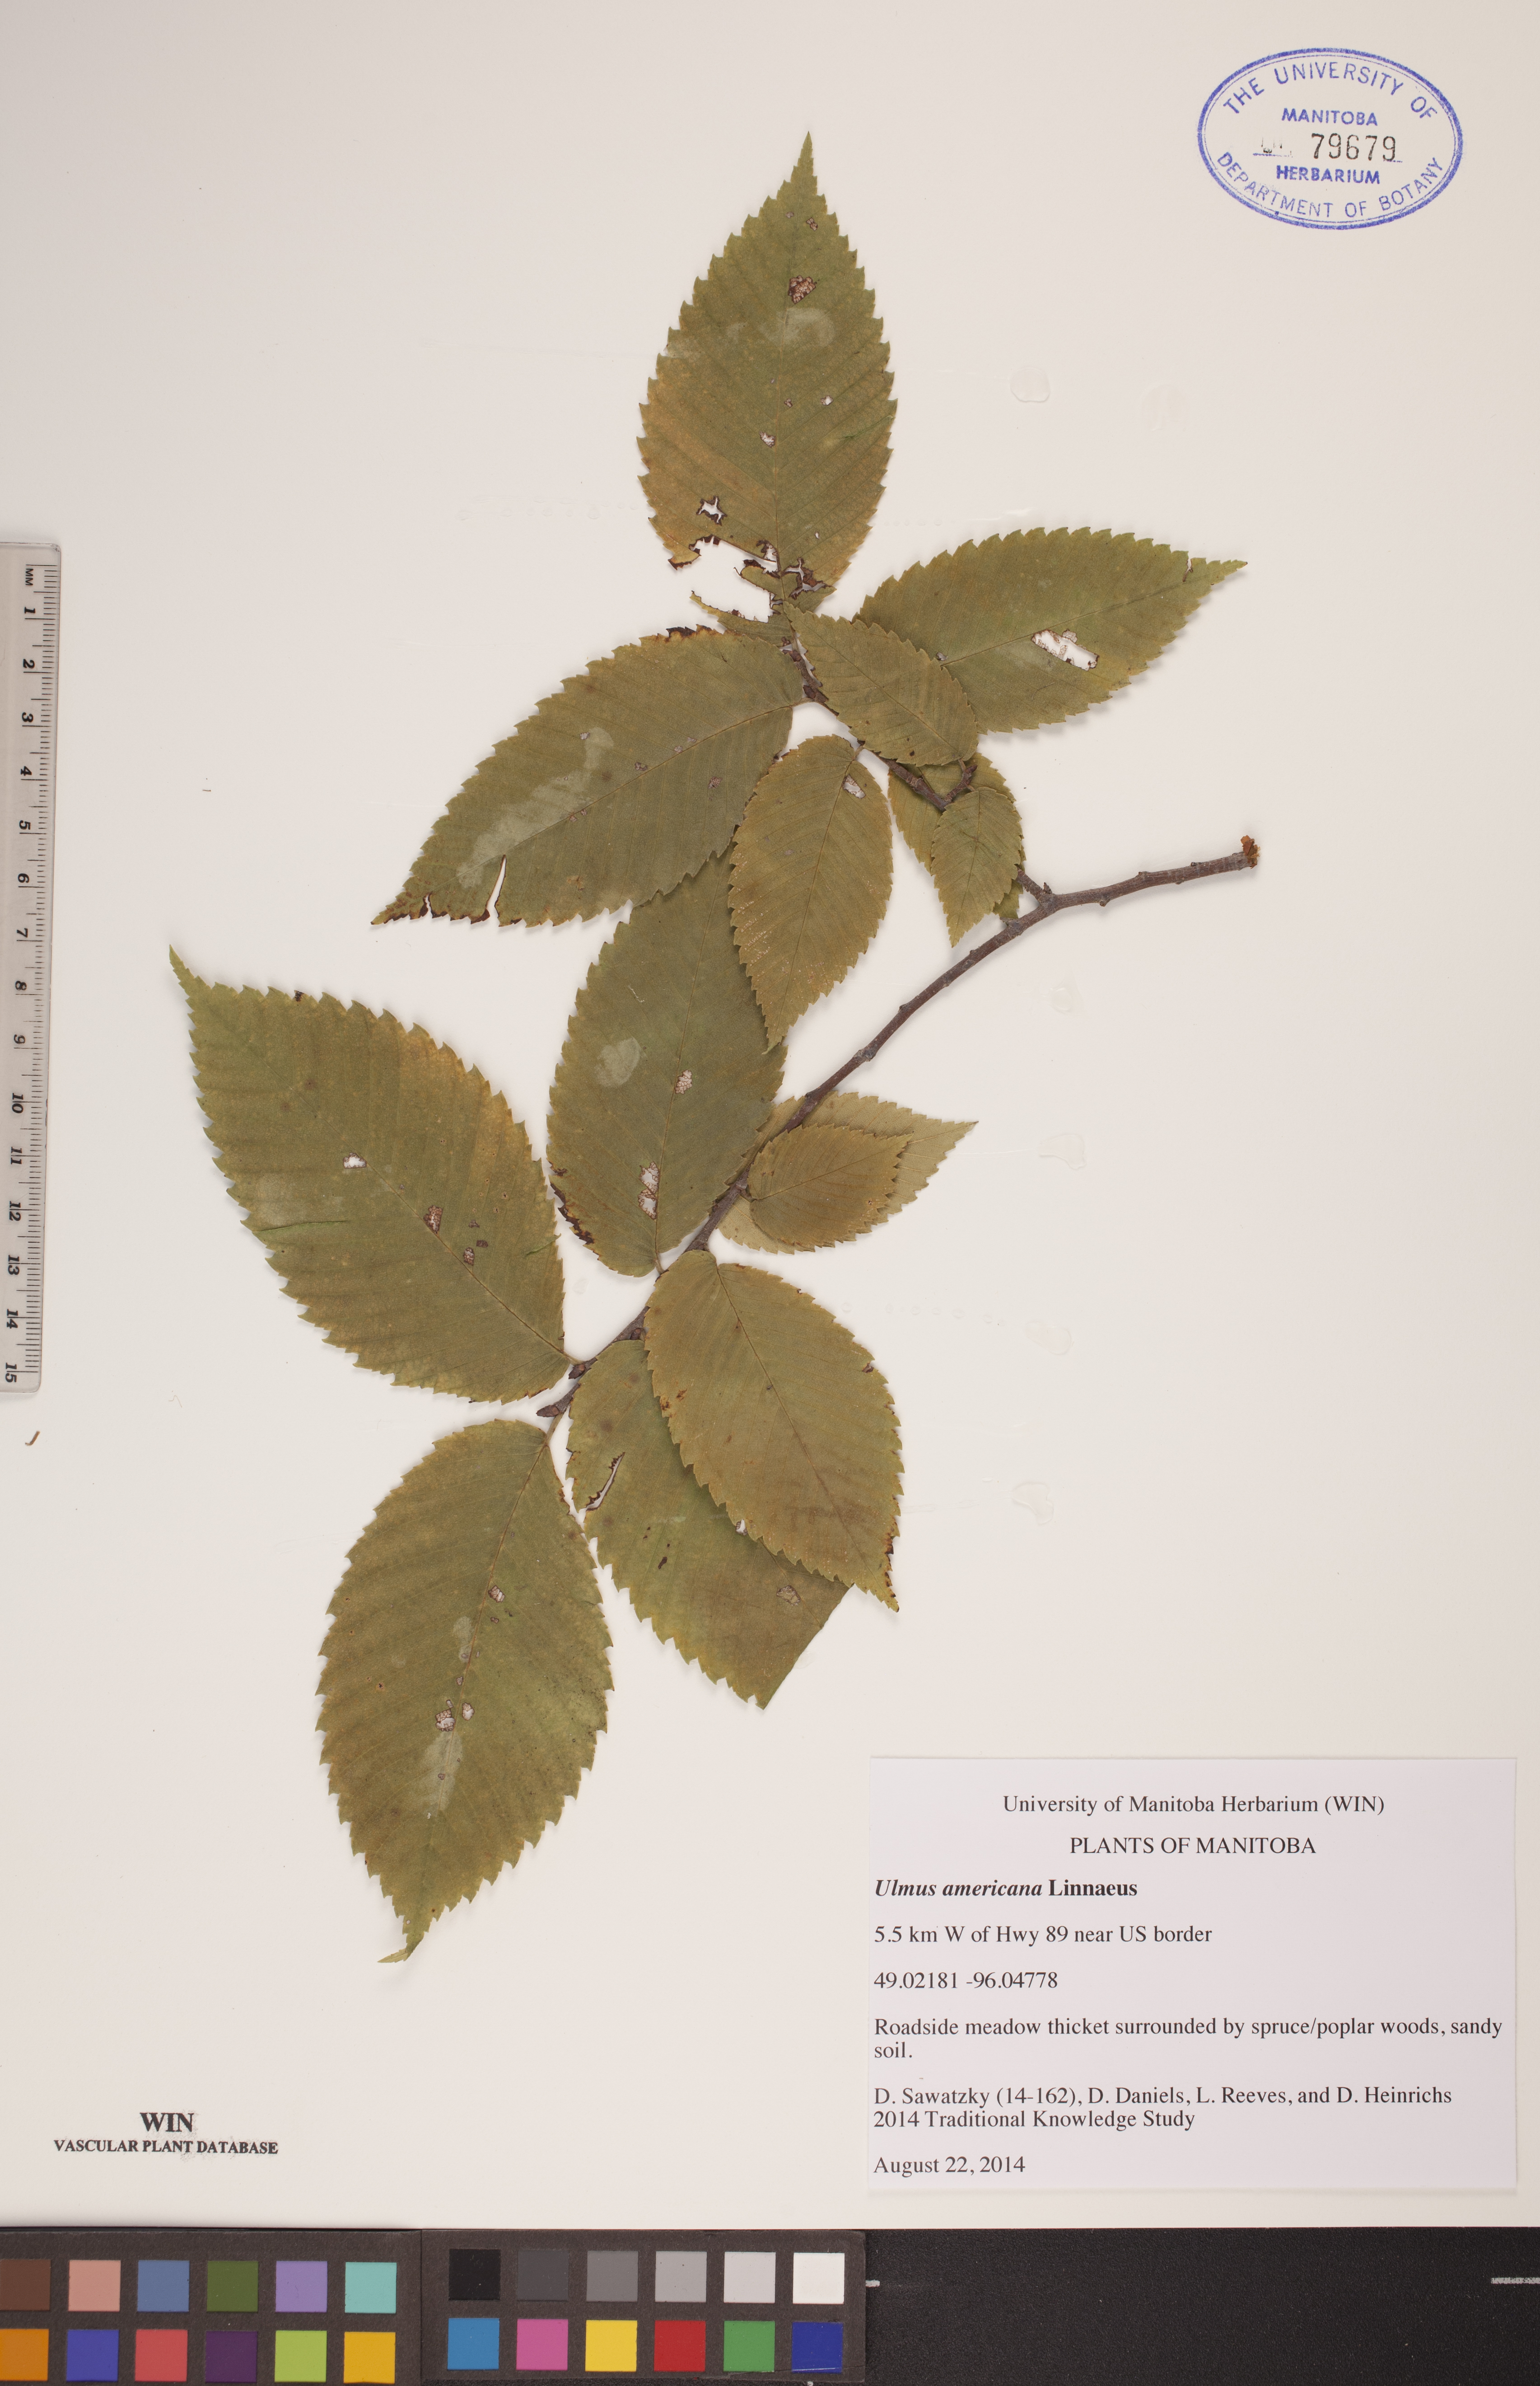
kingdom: Plantae
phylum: Tracheophyta
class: Magnoliopsida
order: Rosales
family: Ulmaceae
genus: Ulmus
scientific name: Ulmus americana
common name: American elm
